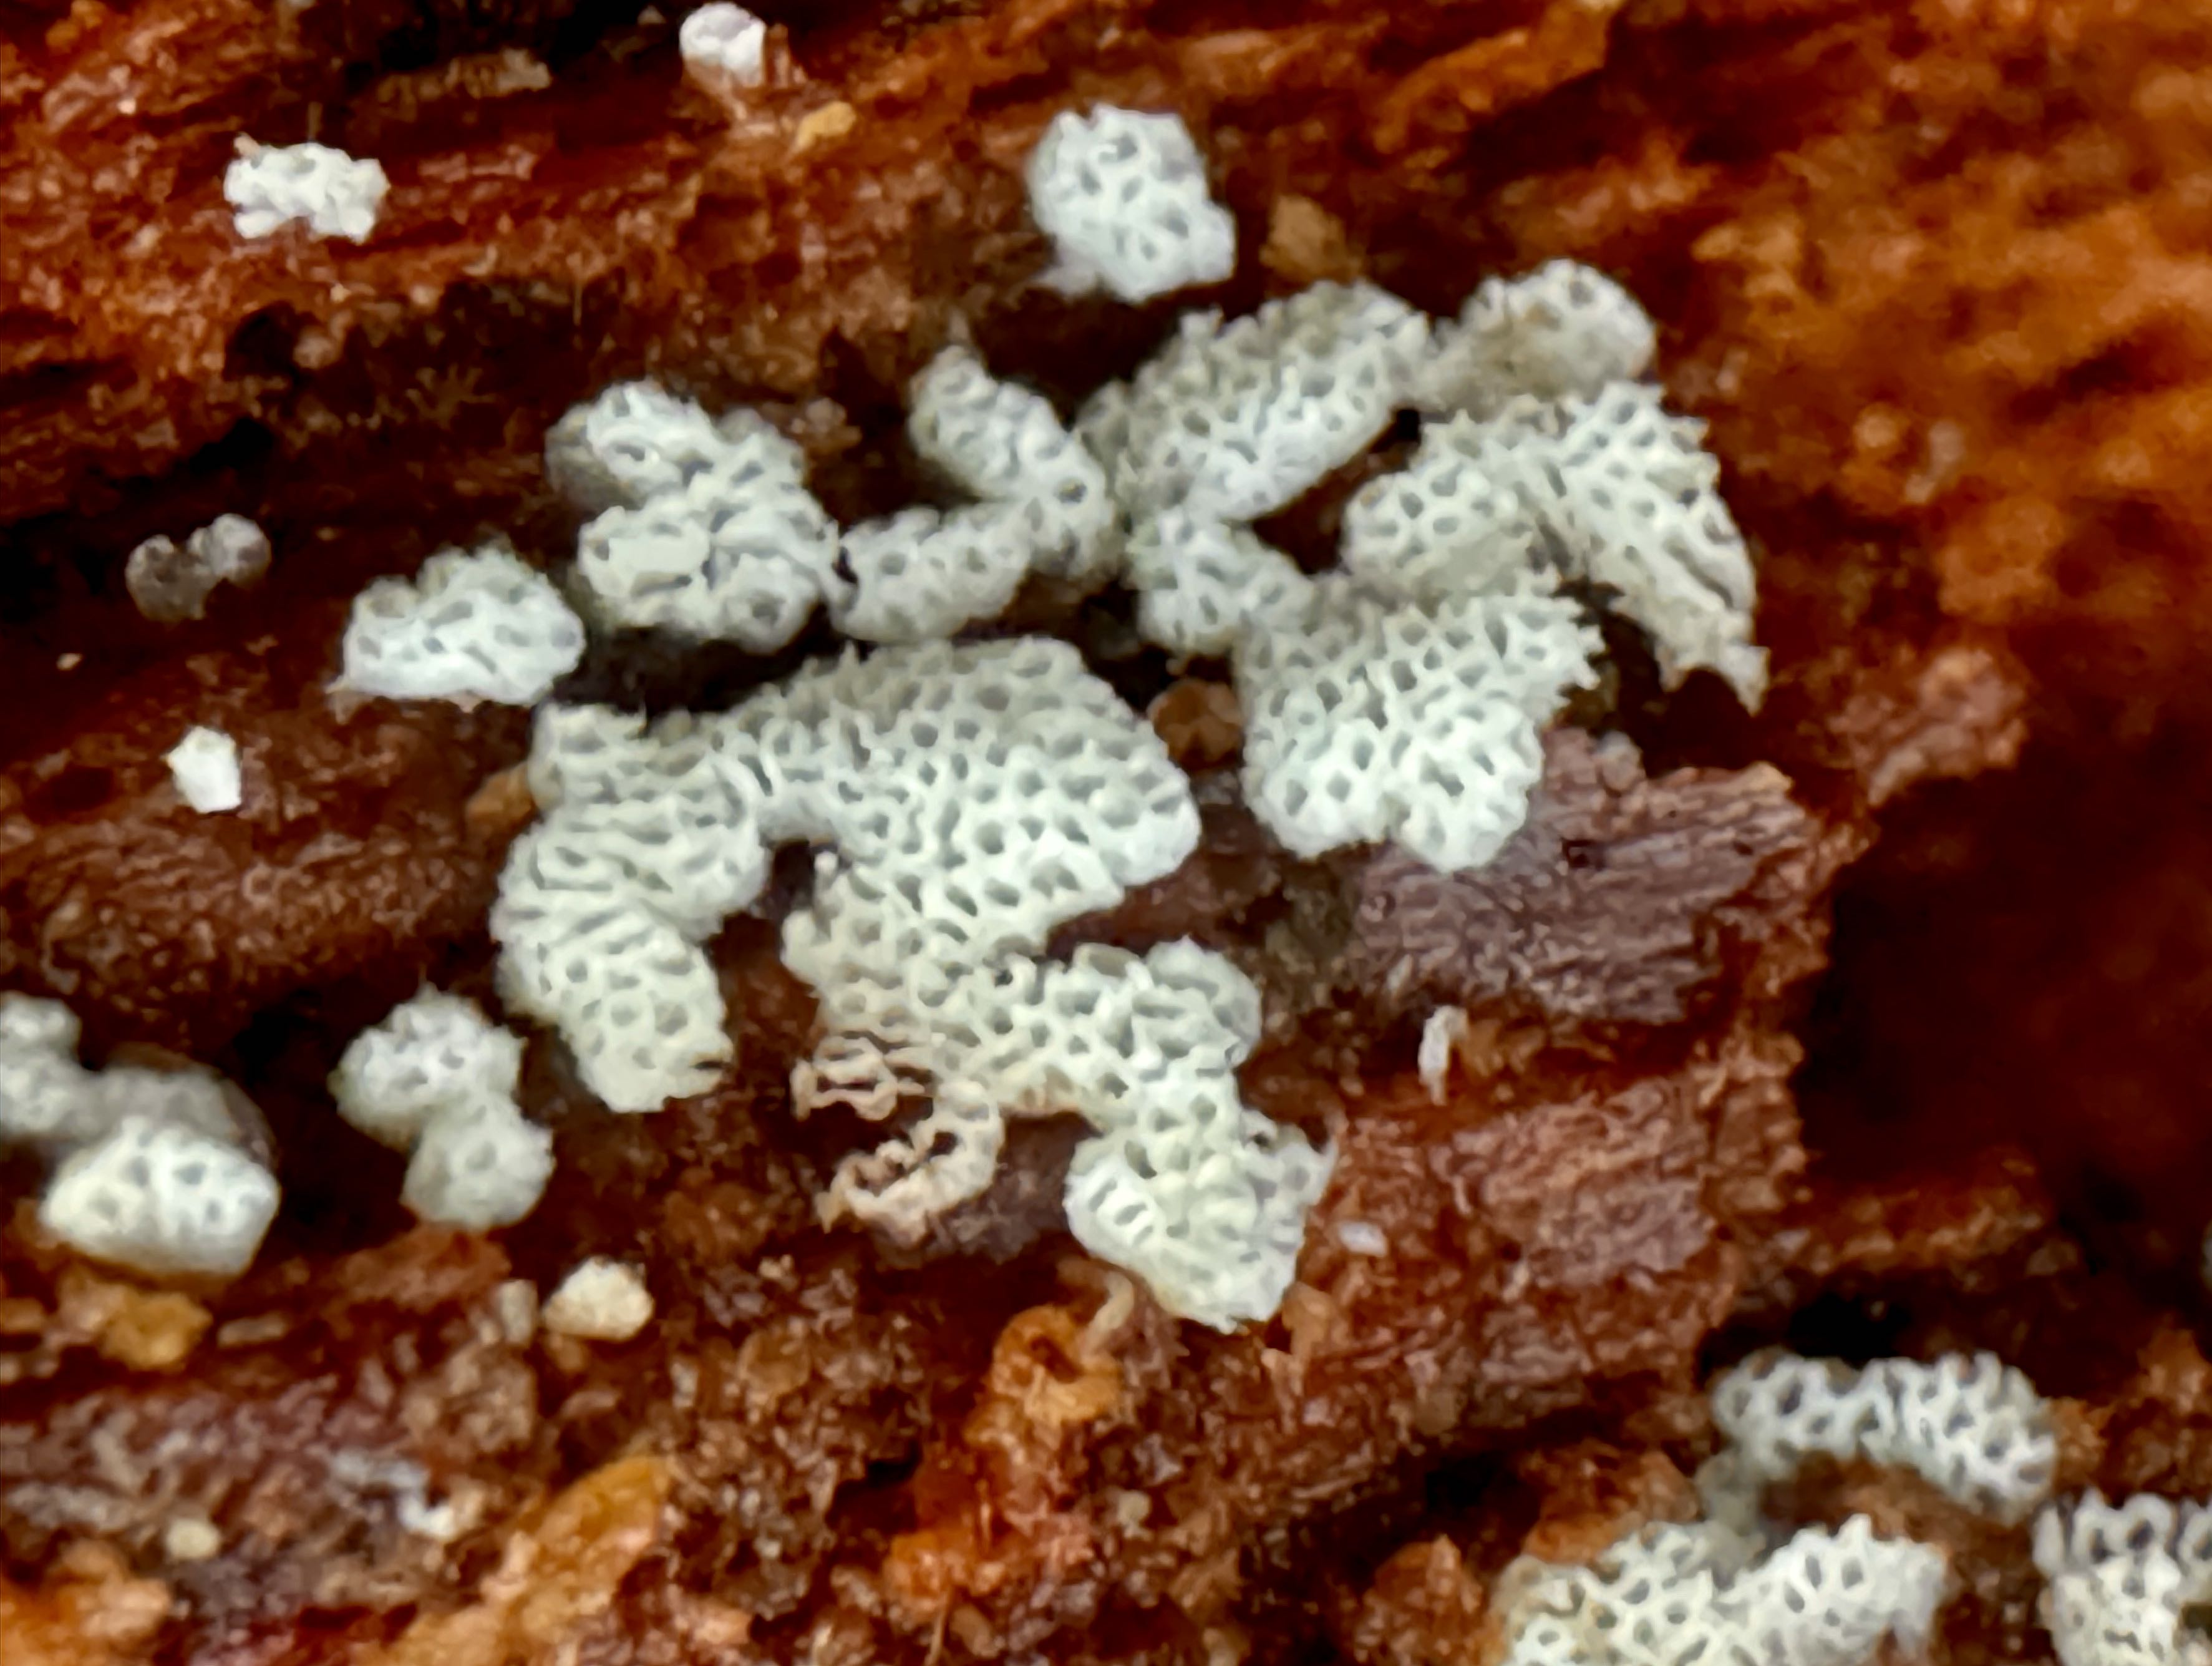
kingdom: Fungi
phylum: Basidiomycota
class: Agaricomycetes
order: Polyporales
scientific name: Polyporales
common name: poresvampordenen
